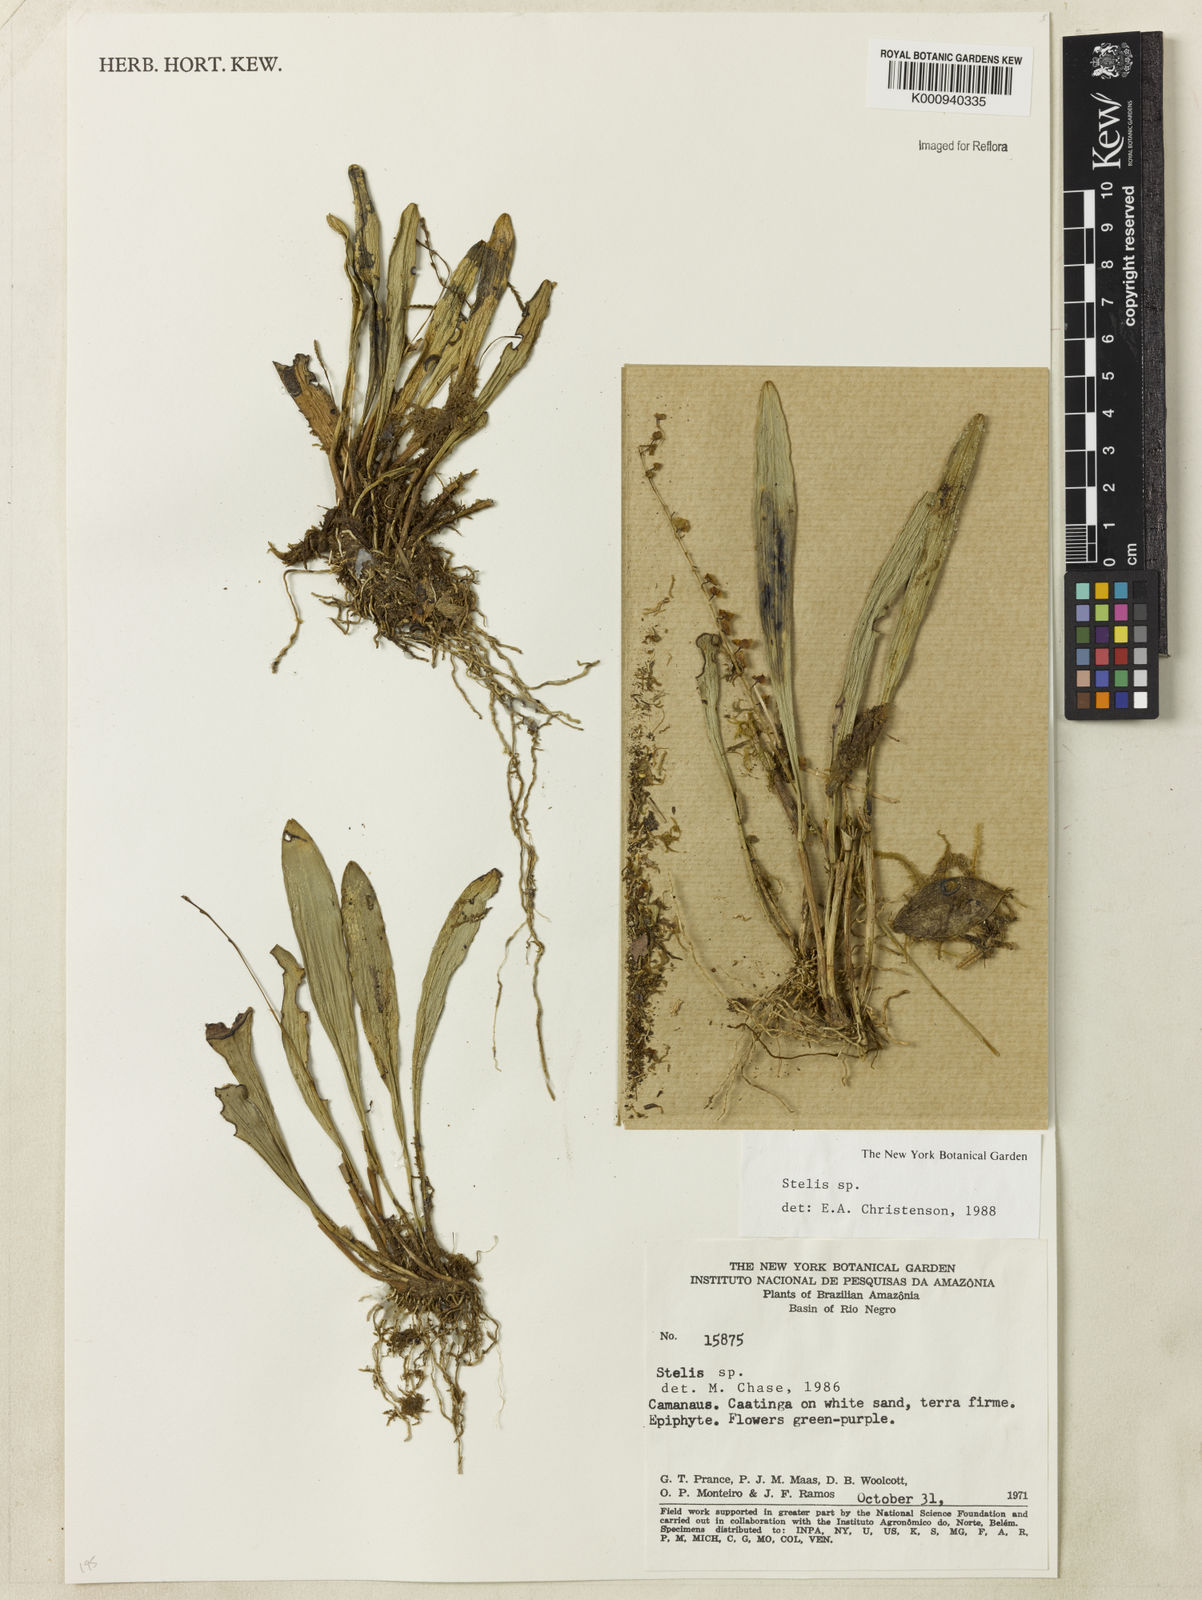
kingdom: Plantae
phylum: Tracheophyta
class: Liliopsida
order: Asparagales
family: Orchidaceae
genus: Stelis
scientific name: Stelis
